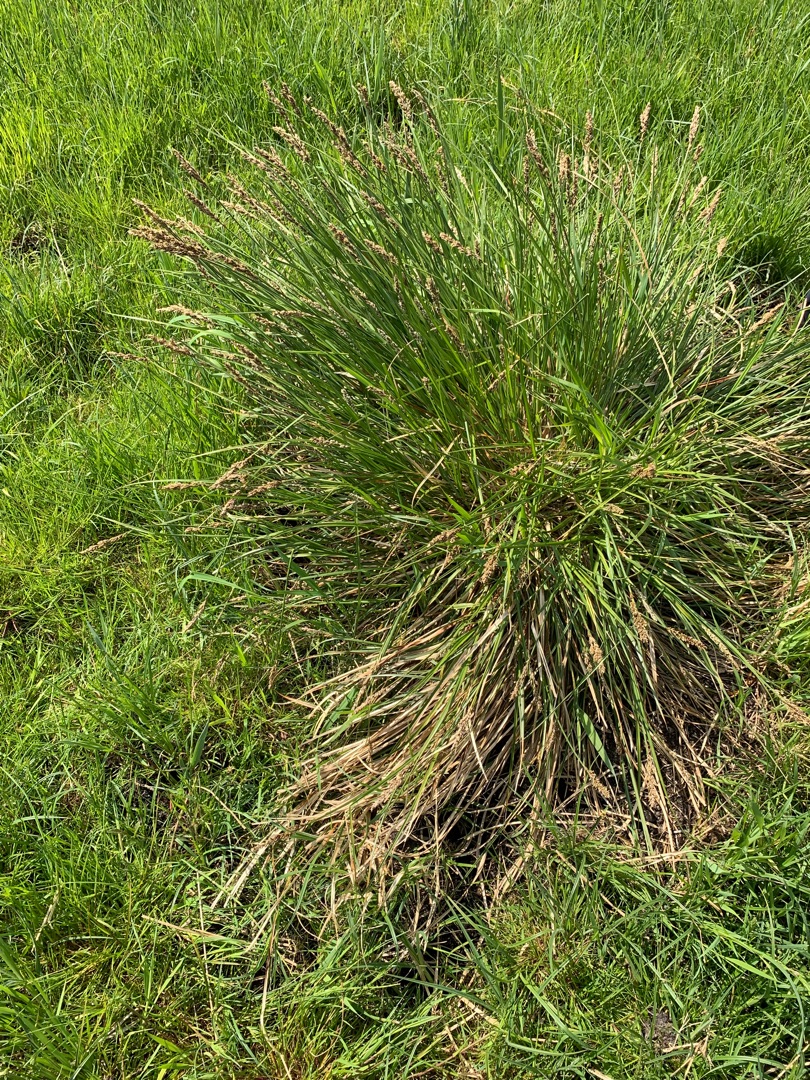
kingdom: Plantae
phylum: Tracheophyta
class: Liliopsida
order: Poales
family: Cyperaceae
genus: Carex
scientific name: Carex paniculata
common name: Top-star
